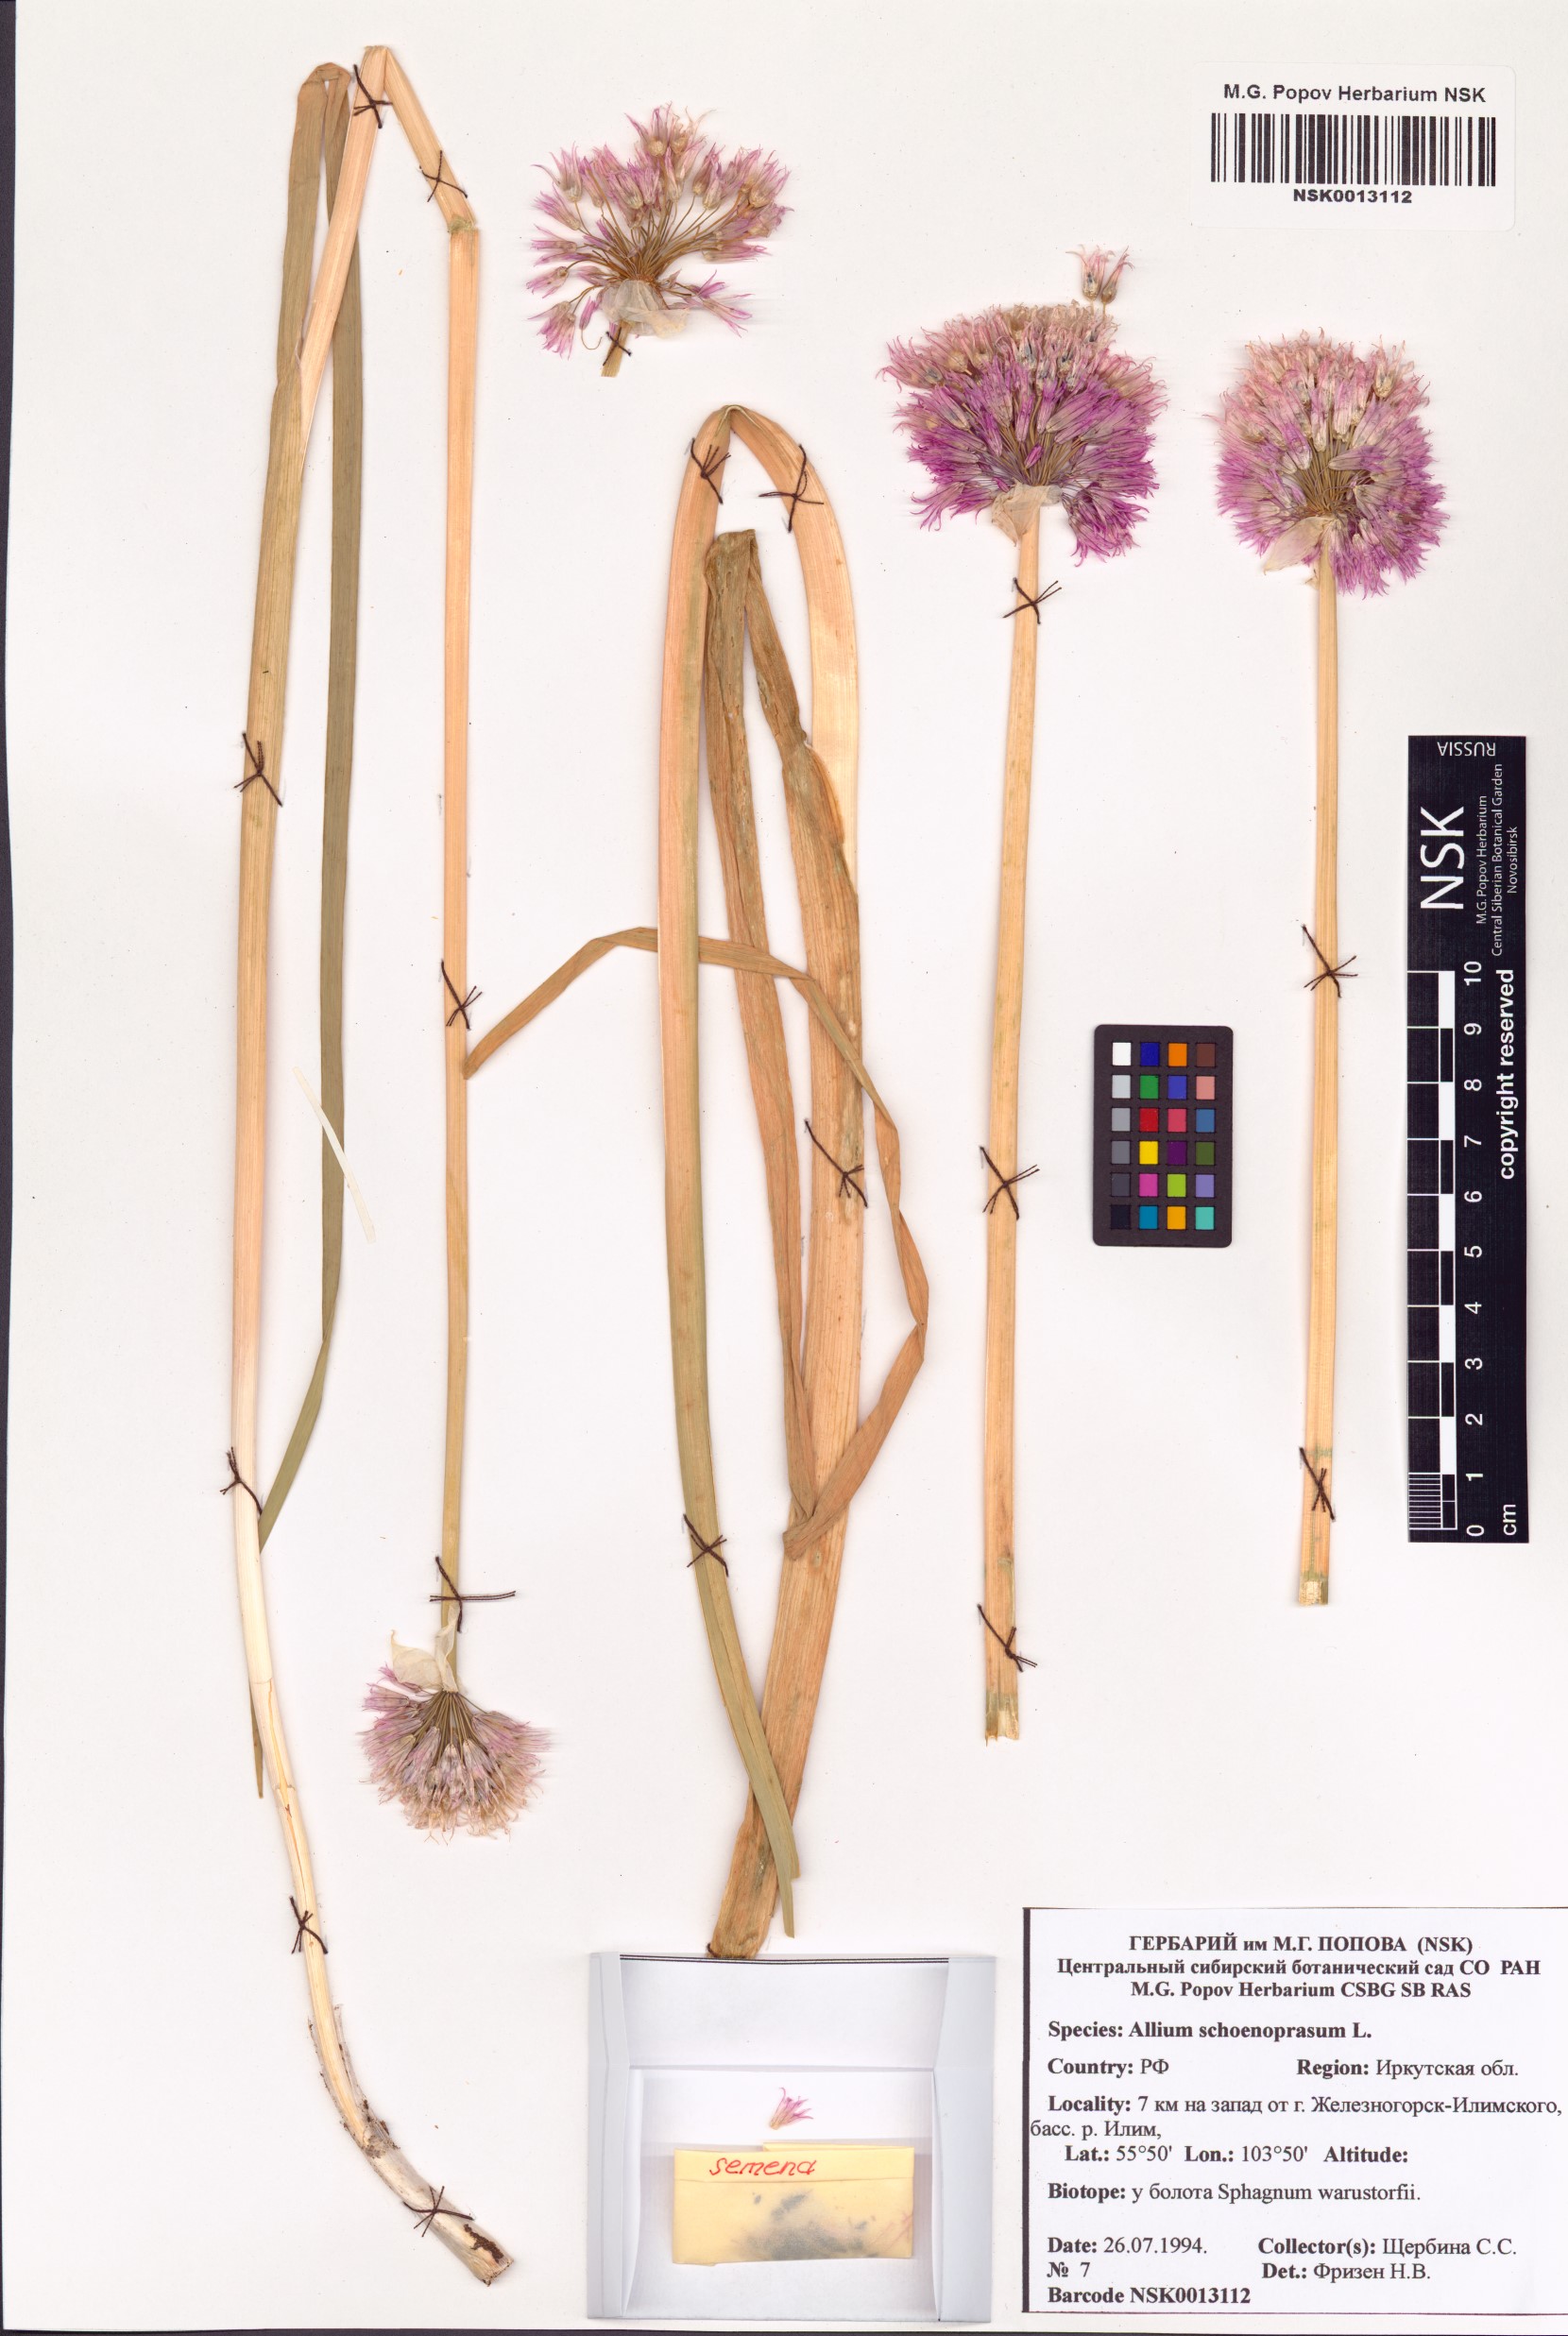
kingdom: Plantae
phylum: Tracheophyta
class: Liliopsida
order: Asparagales
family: Amaryllidaceae
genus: Allium
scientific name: Allium schoenoprasum
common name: Chives
